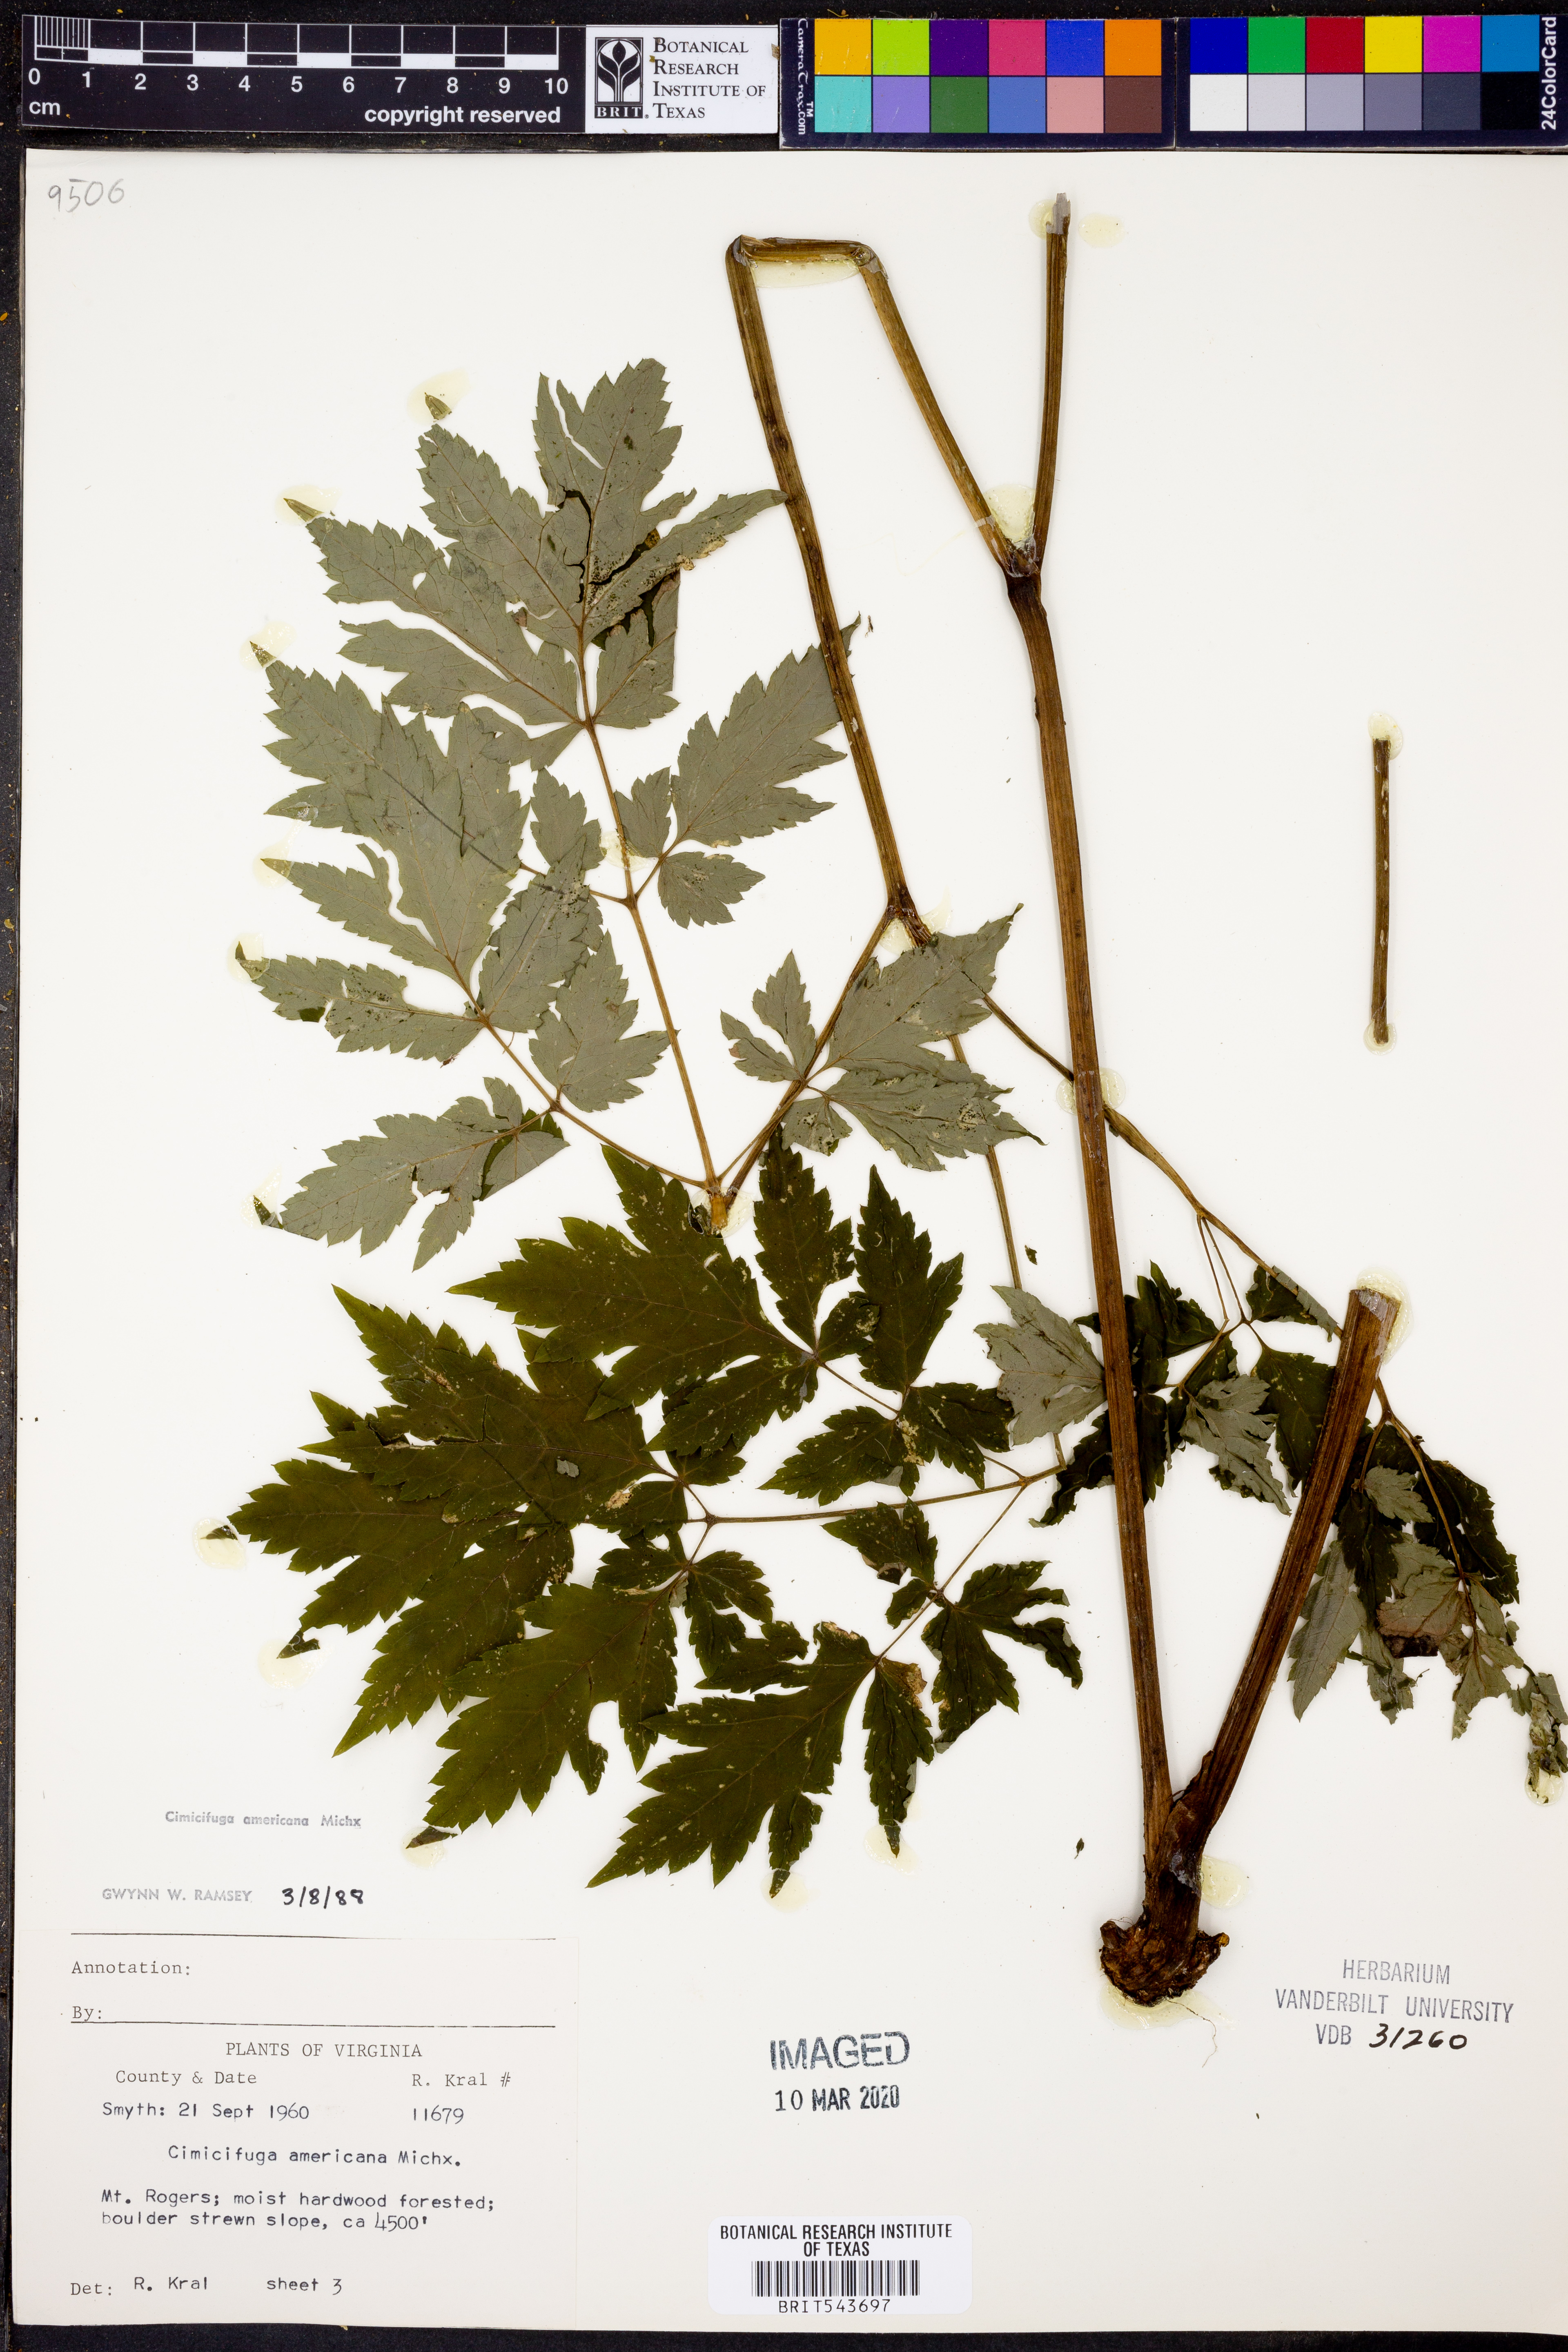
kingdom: Plantae
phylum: Tracheophyta
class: Magnoliopsida
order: Ranunculales
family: Ranunculaceae
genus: Actaea
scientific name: Actaea podocarpa
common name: American bugbane
